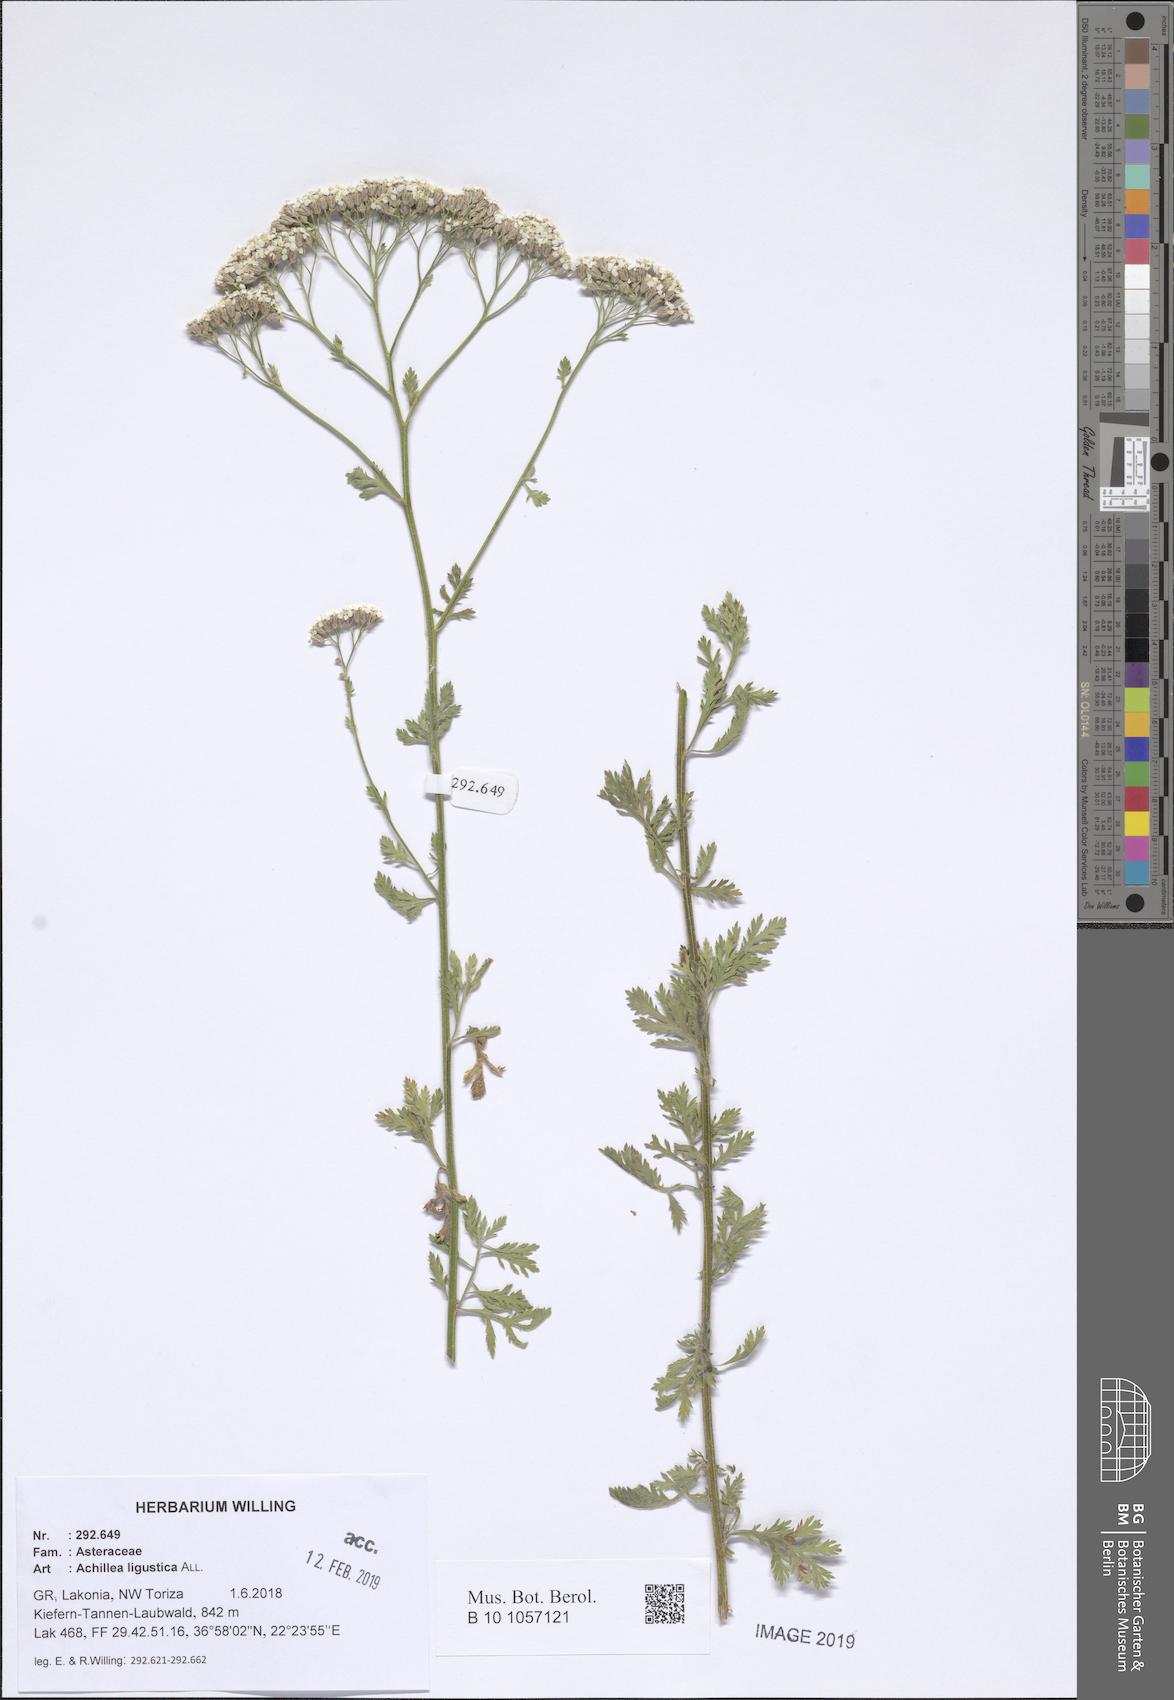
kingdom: Plantae
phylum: Tracheophyta
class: Magnoliopsida
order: Asterales
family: Asteraceae
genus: Achillea
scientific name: Achillea ligustica
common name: Southern yarrow
